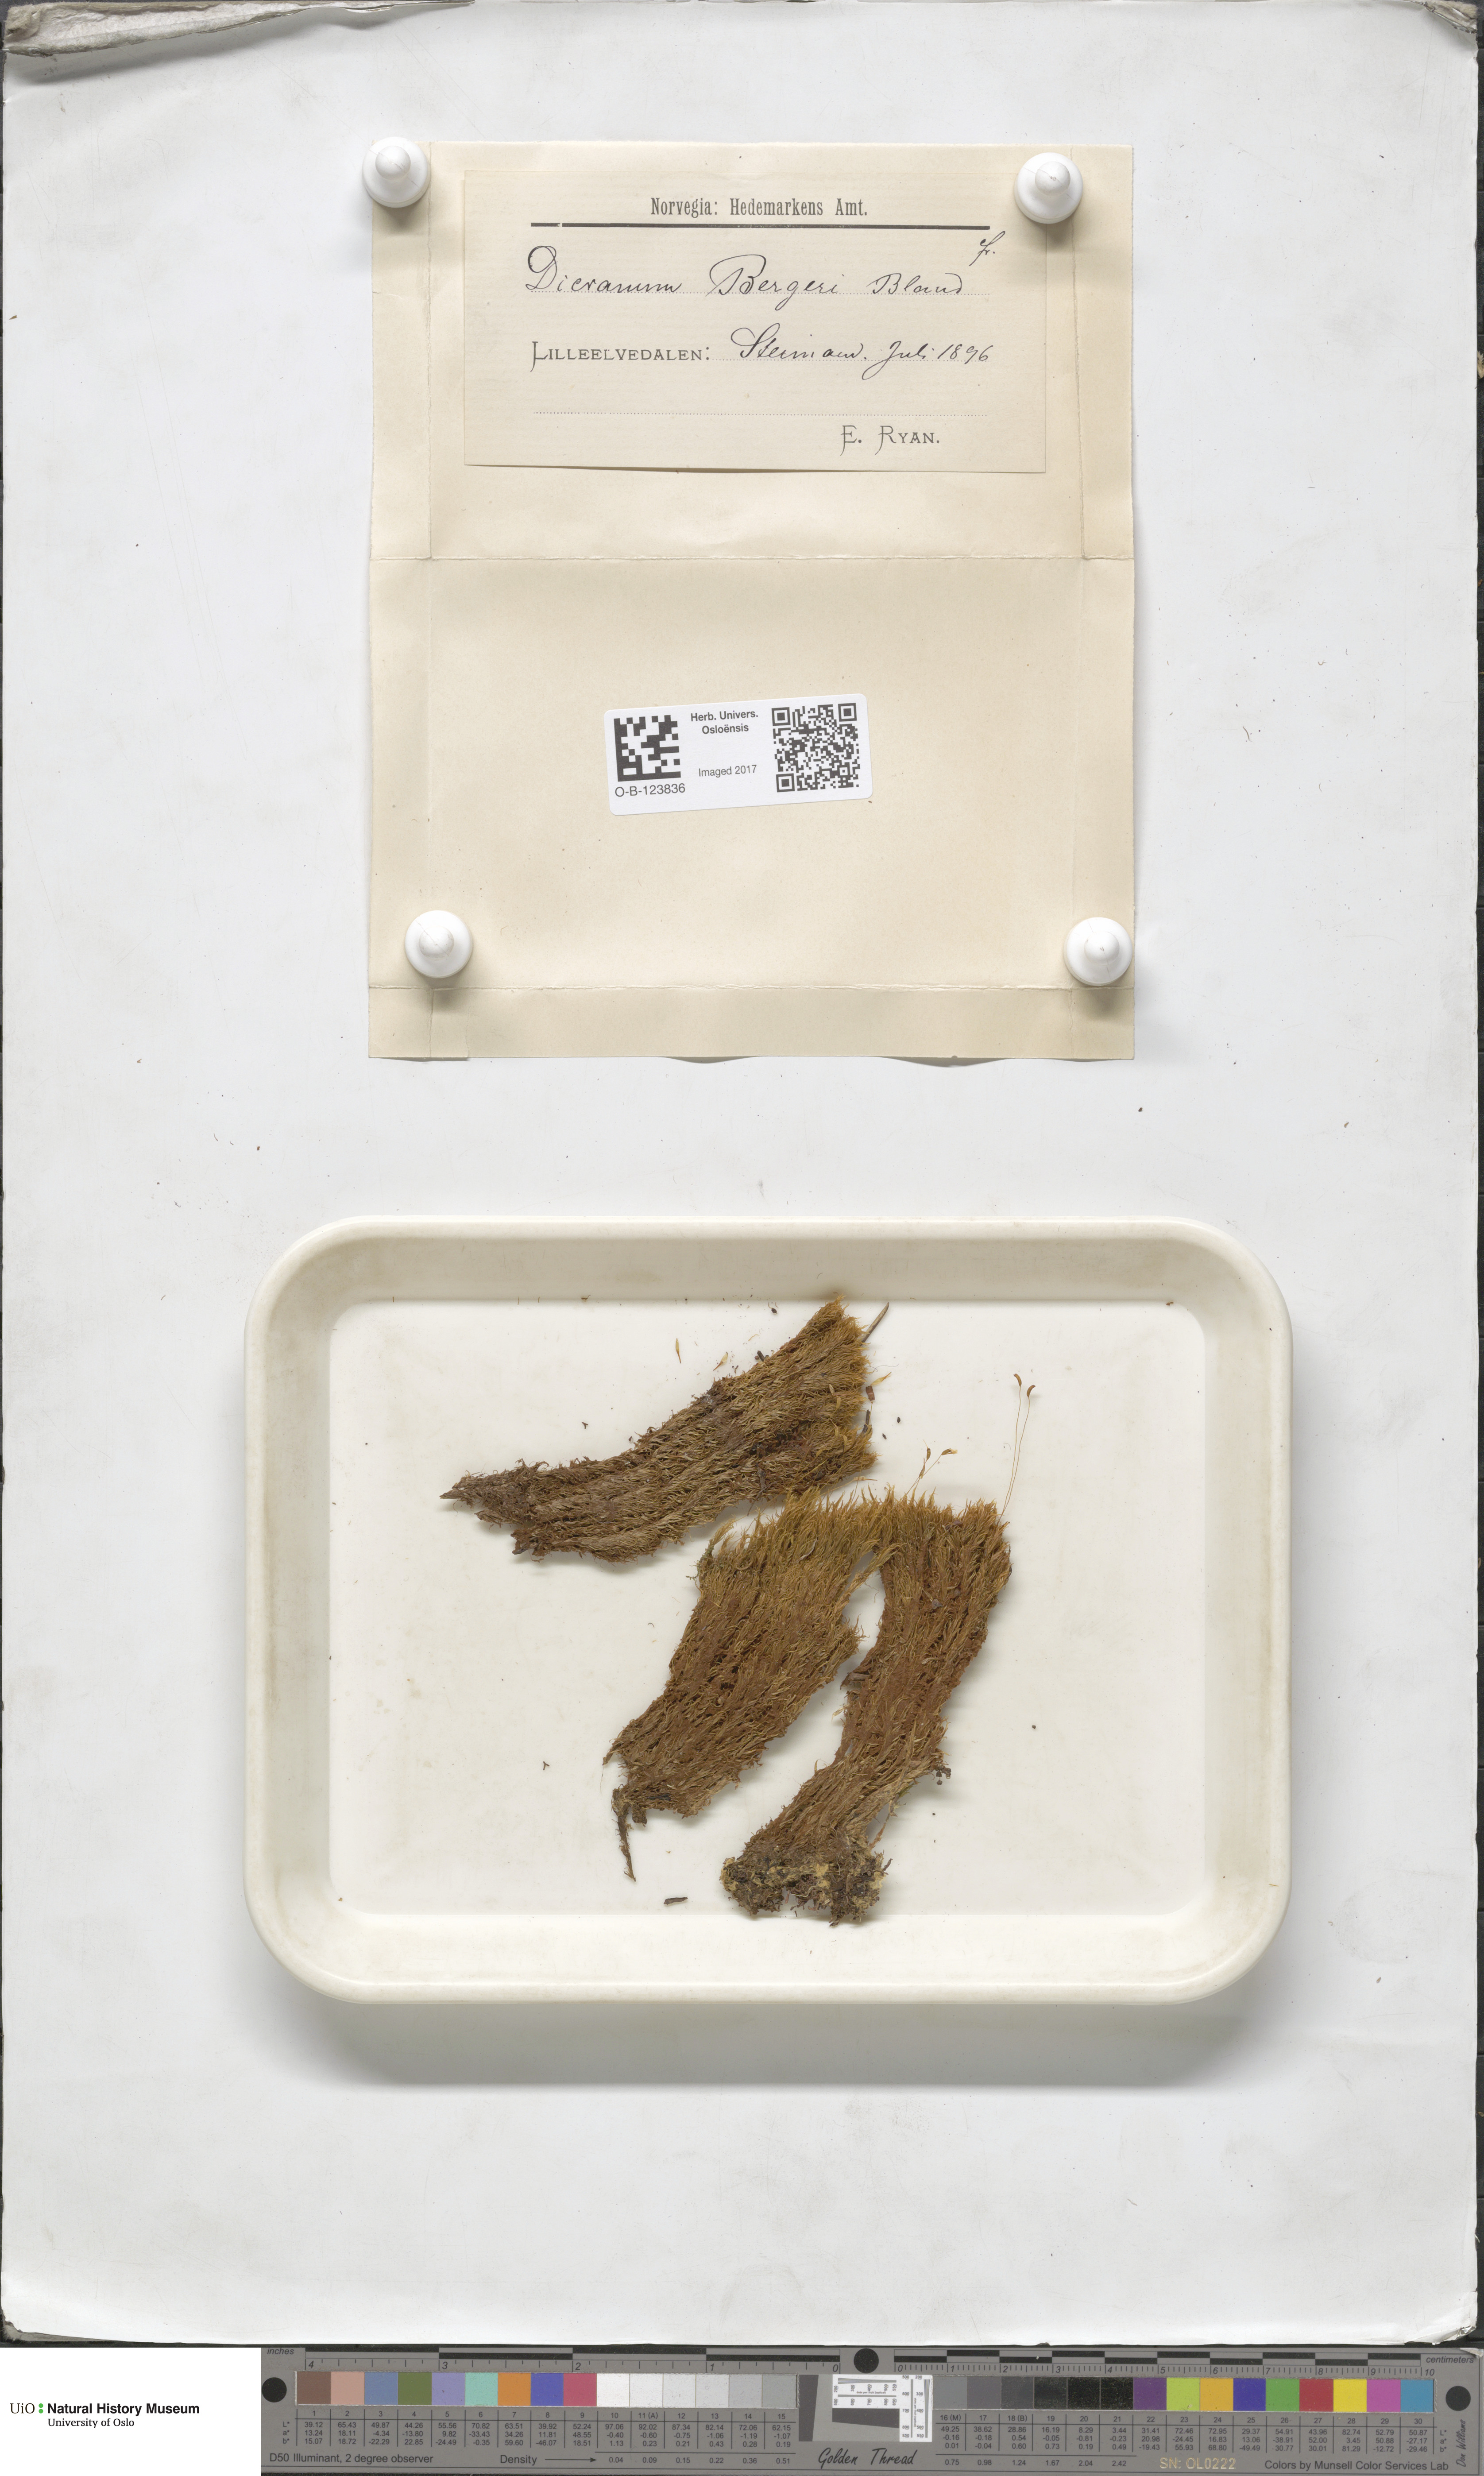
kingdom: Plantae
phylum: Bryophyta
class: Bryopsida
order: Dicranales
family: Dicranaceae
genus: Dicranum
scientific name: Dicranum undulatum
